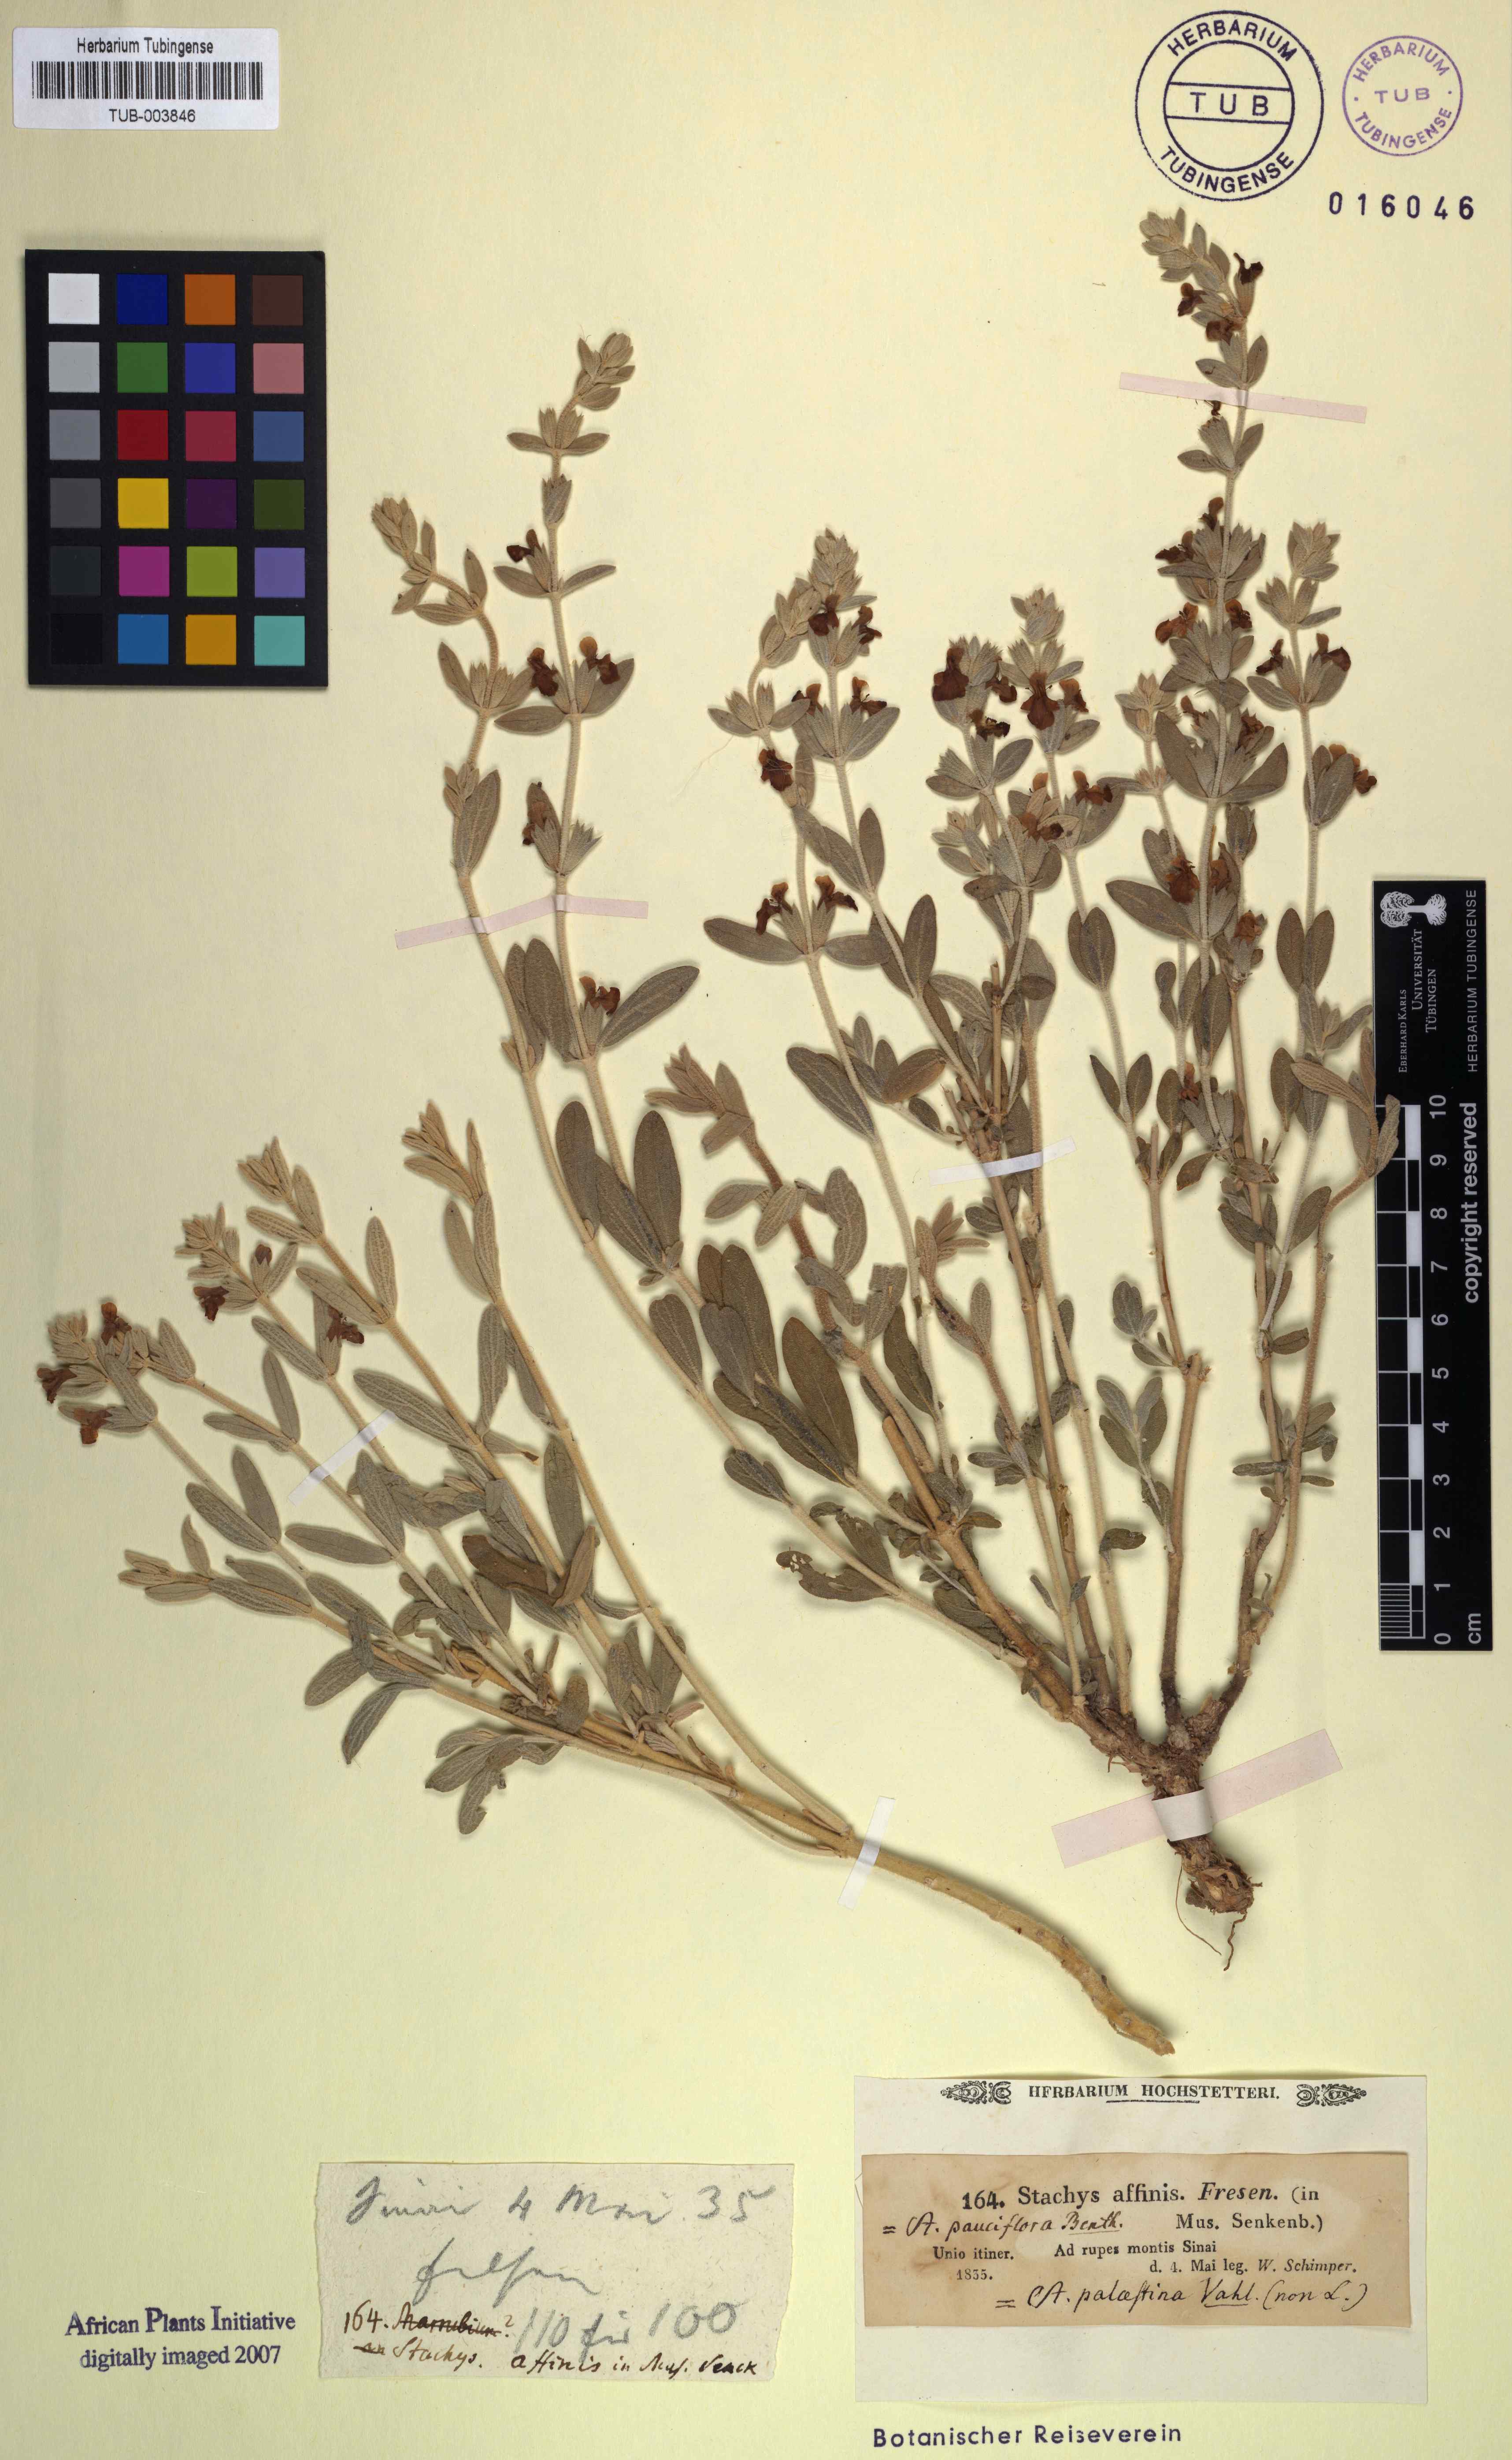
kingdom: Plantae
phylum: Tracheophyta
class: Magnoliopsida
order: Lamiales
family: Lamiaceae
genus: Stachys
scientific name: Stachys aegyptiaca
